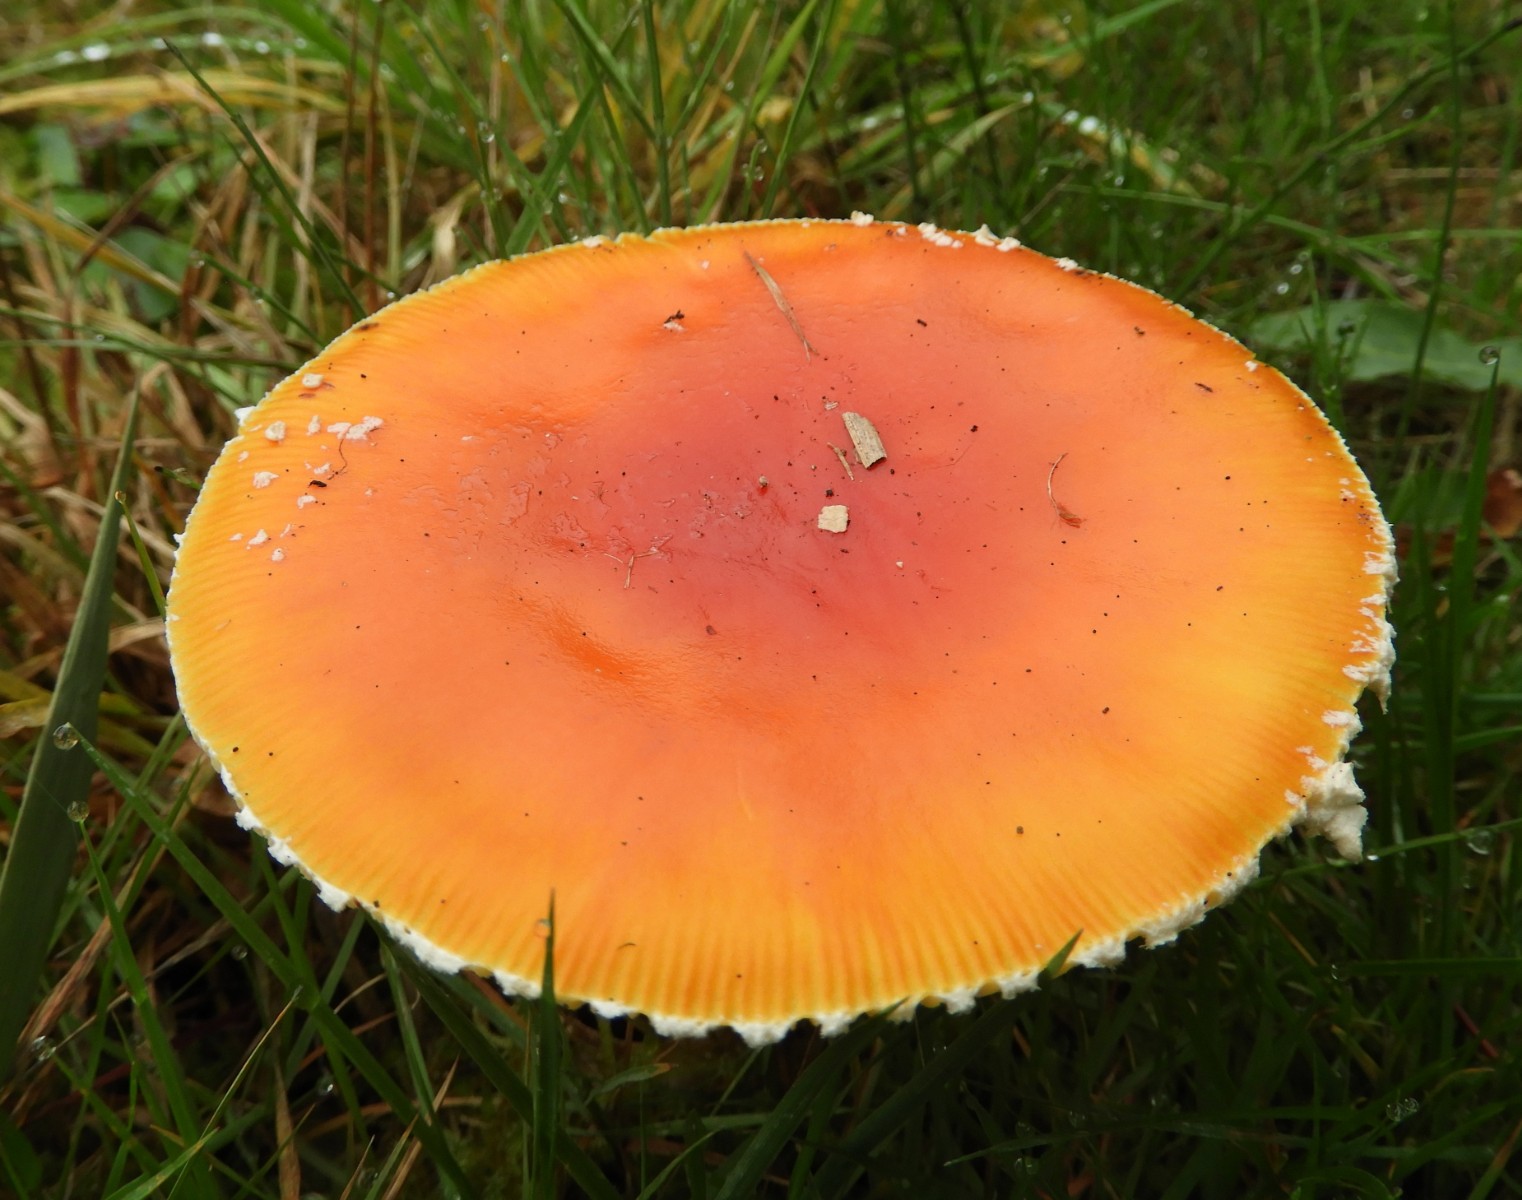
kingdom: Fungi
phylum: Basidiomycota
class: Agaricomycetes
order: Agaricales
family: Amanitaceae
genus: Amanita
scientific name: Amanita muscaria
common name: rød fluesvamp
